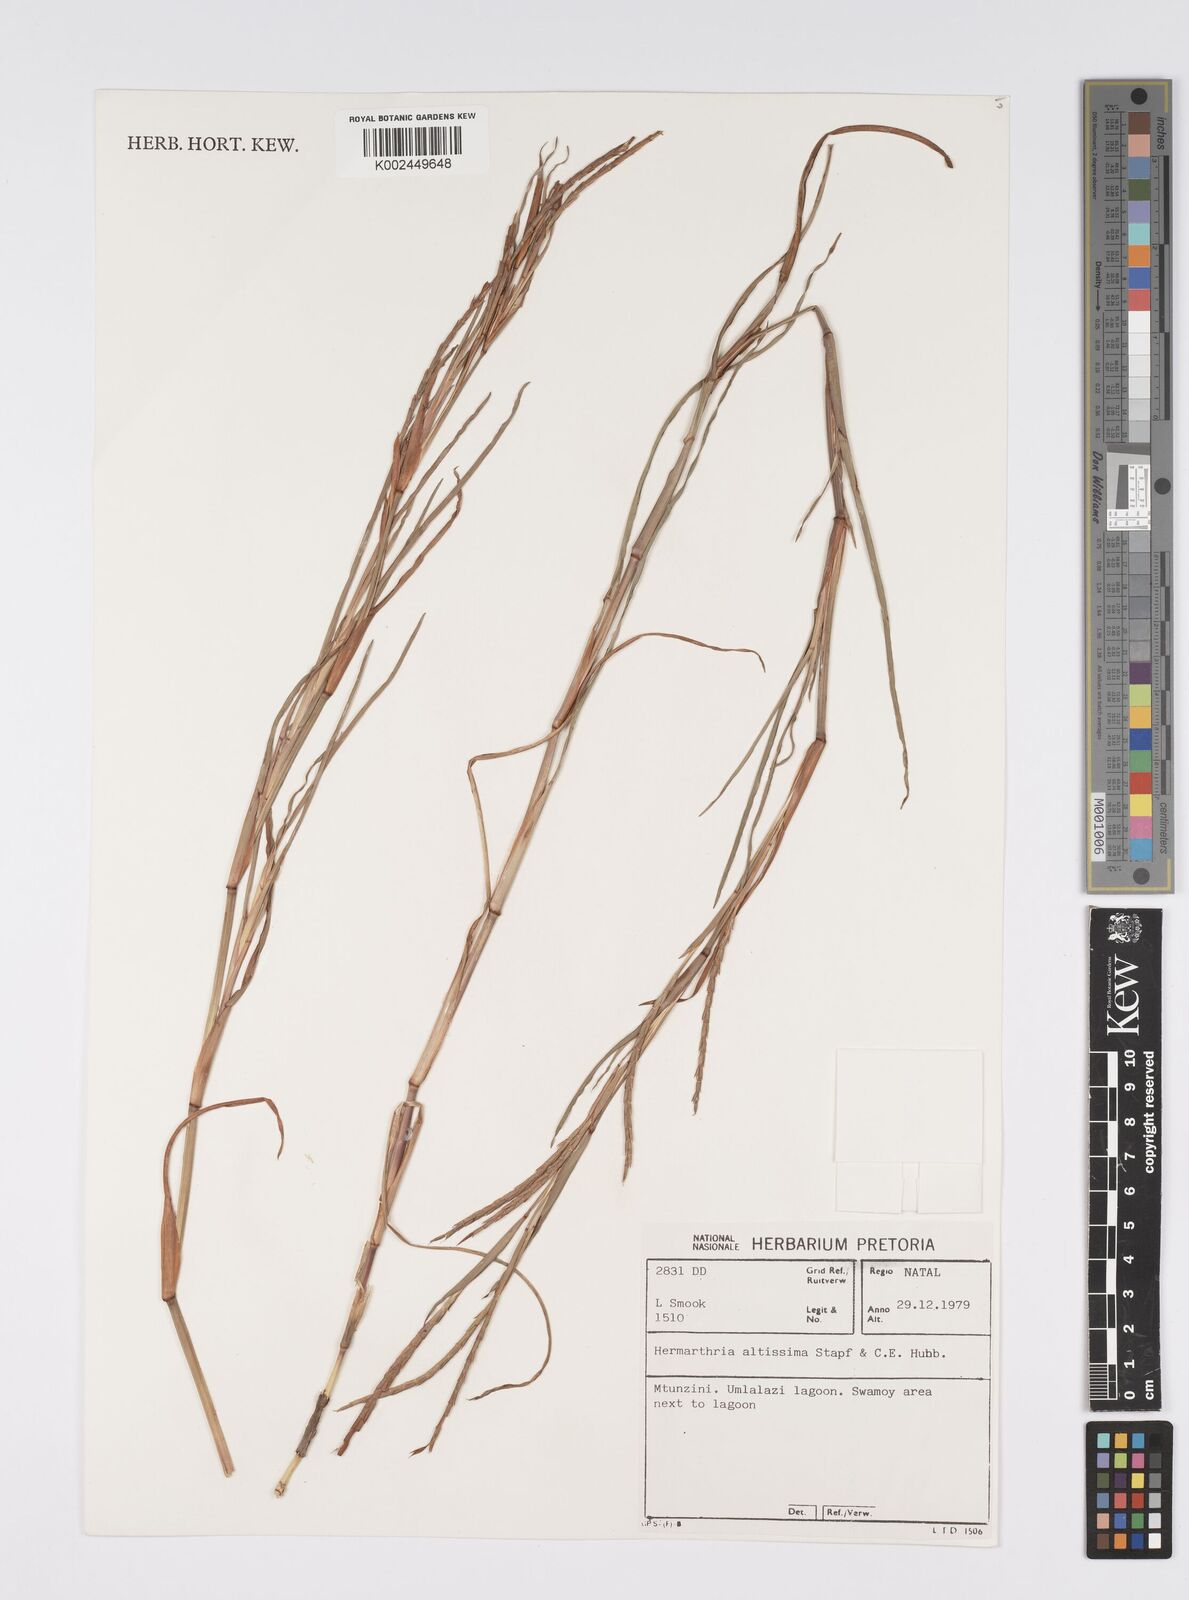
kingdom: Plantae
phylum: Tracheophyta
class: Liliopsida
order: Poales
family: Poaceae
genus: Hemarthria
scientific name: Hemarthria altissima
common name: African jointgrass
